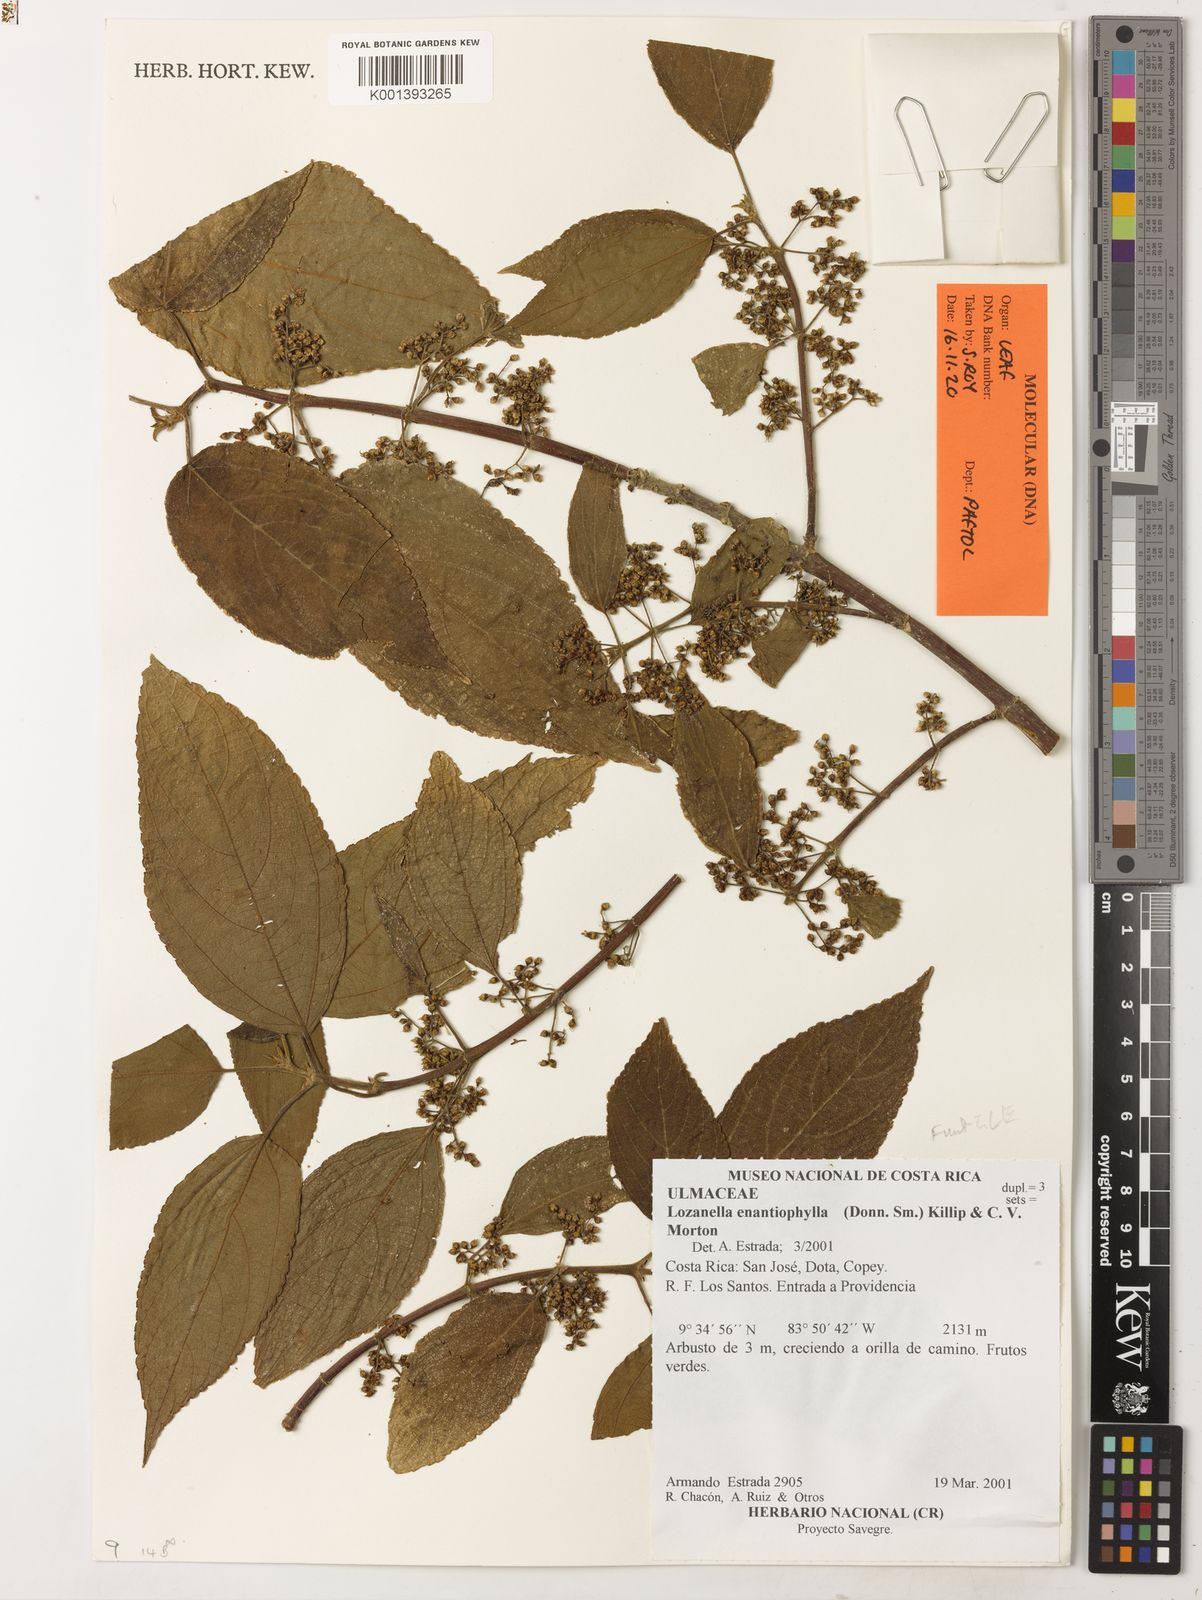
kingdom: Plantae
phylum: Tracheophyta
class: Magnoliopsida
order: Rosales
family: Cannabaceae
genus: Lozanella
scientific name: Lozanella enantiophylla
